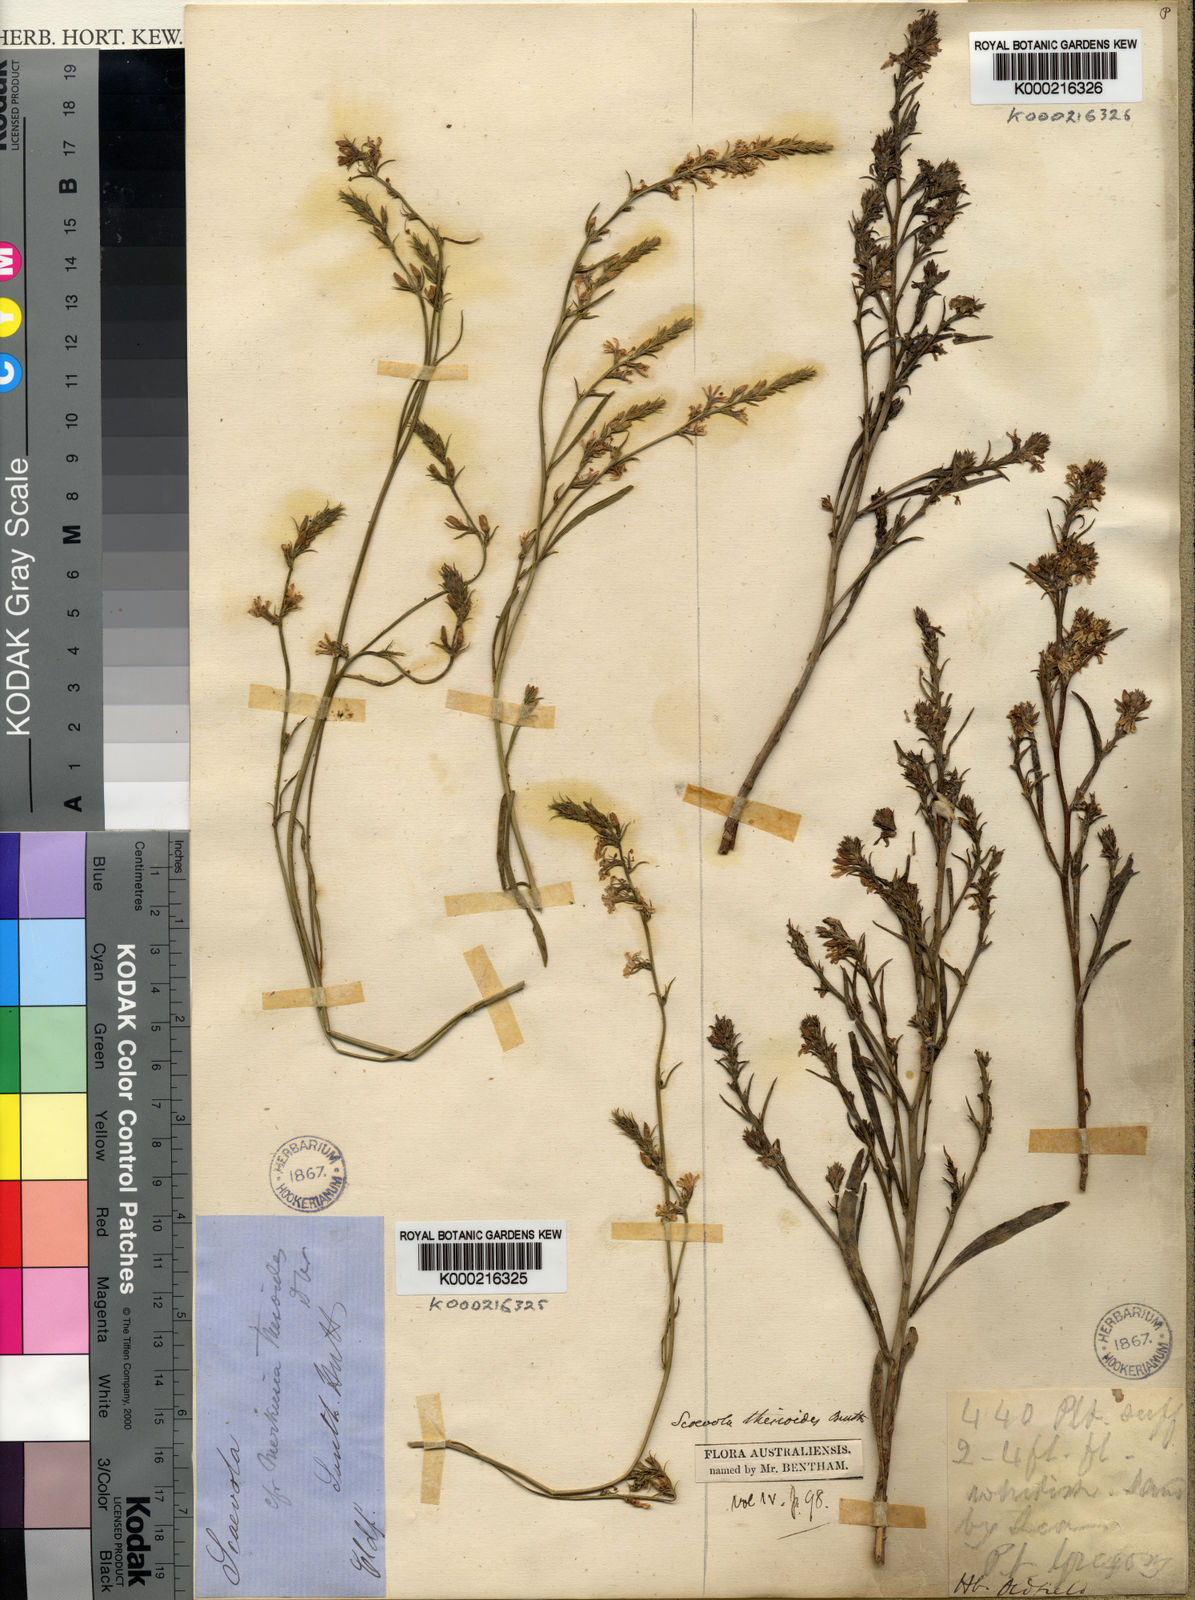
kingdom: Plantae
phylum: Tracheophyta
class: Magnoliopsida
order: Asterales
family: Goodeniaceae
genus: Scaevola
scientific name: Scaevola thesioides
